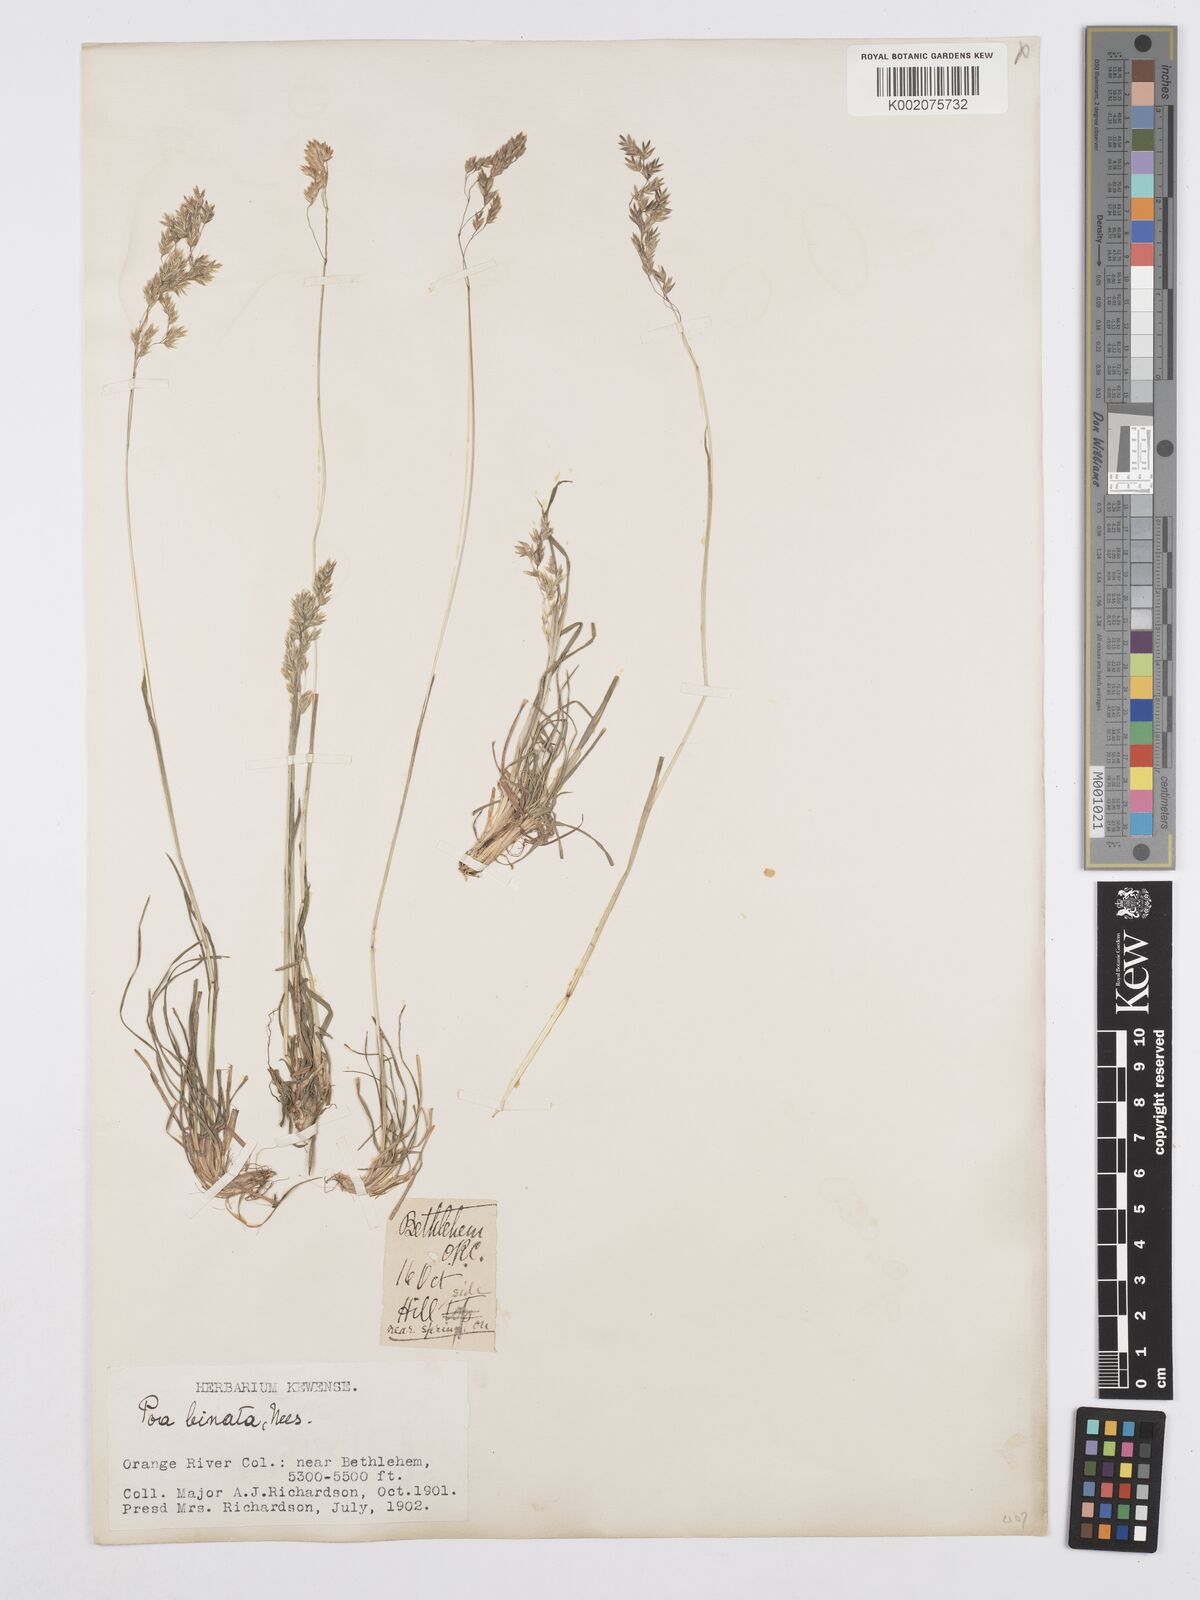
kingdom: Plantae
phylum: Tracheophyta
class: Liliopsida
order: Poales
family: Poaceae
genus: Poa
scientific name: Poa binata
